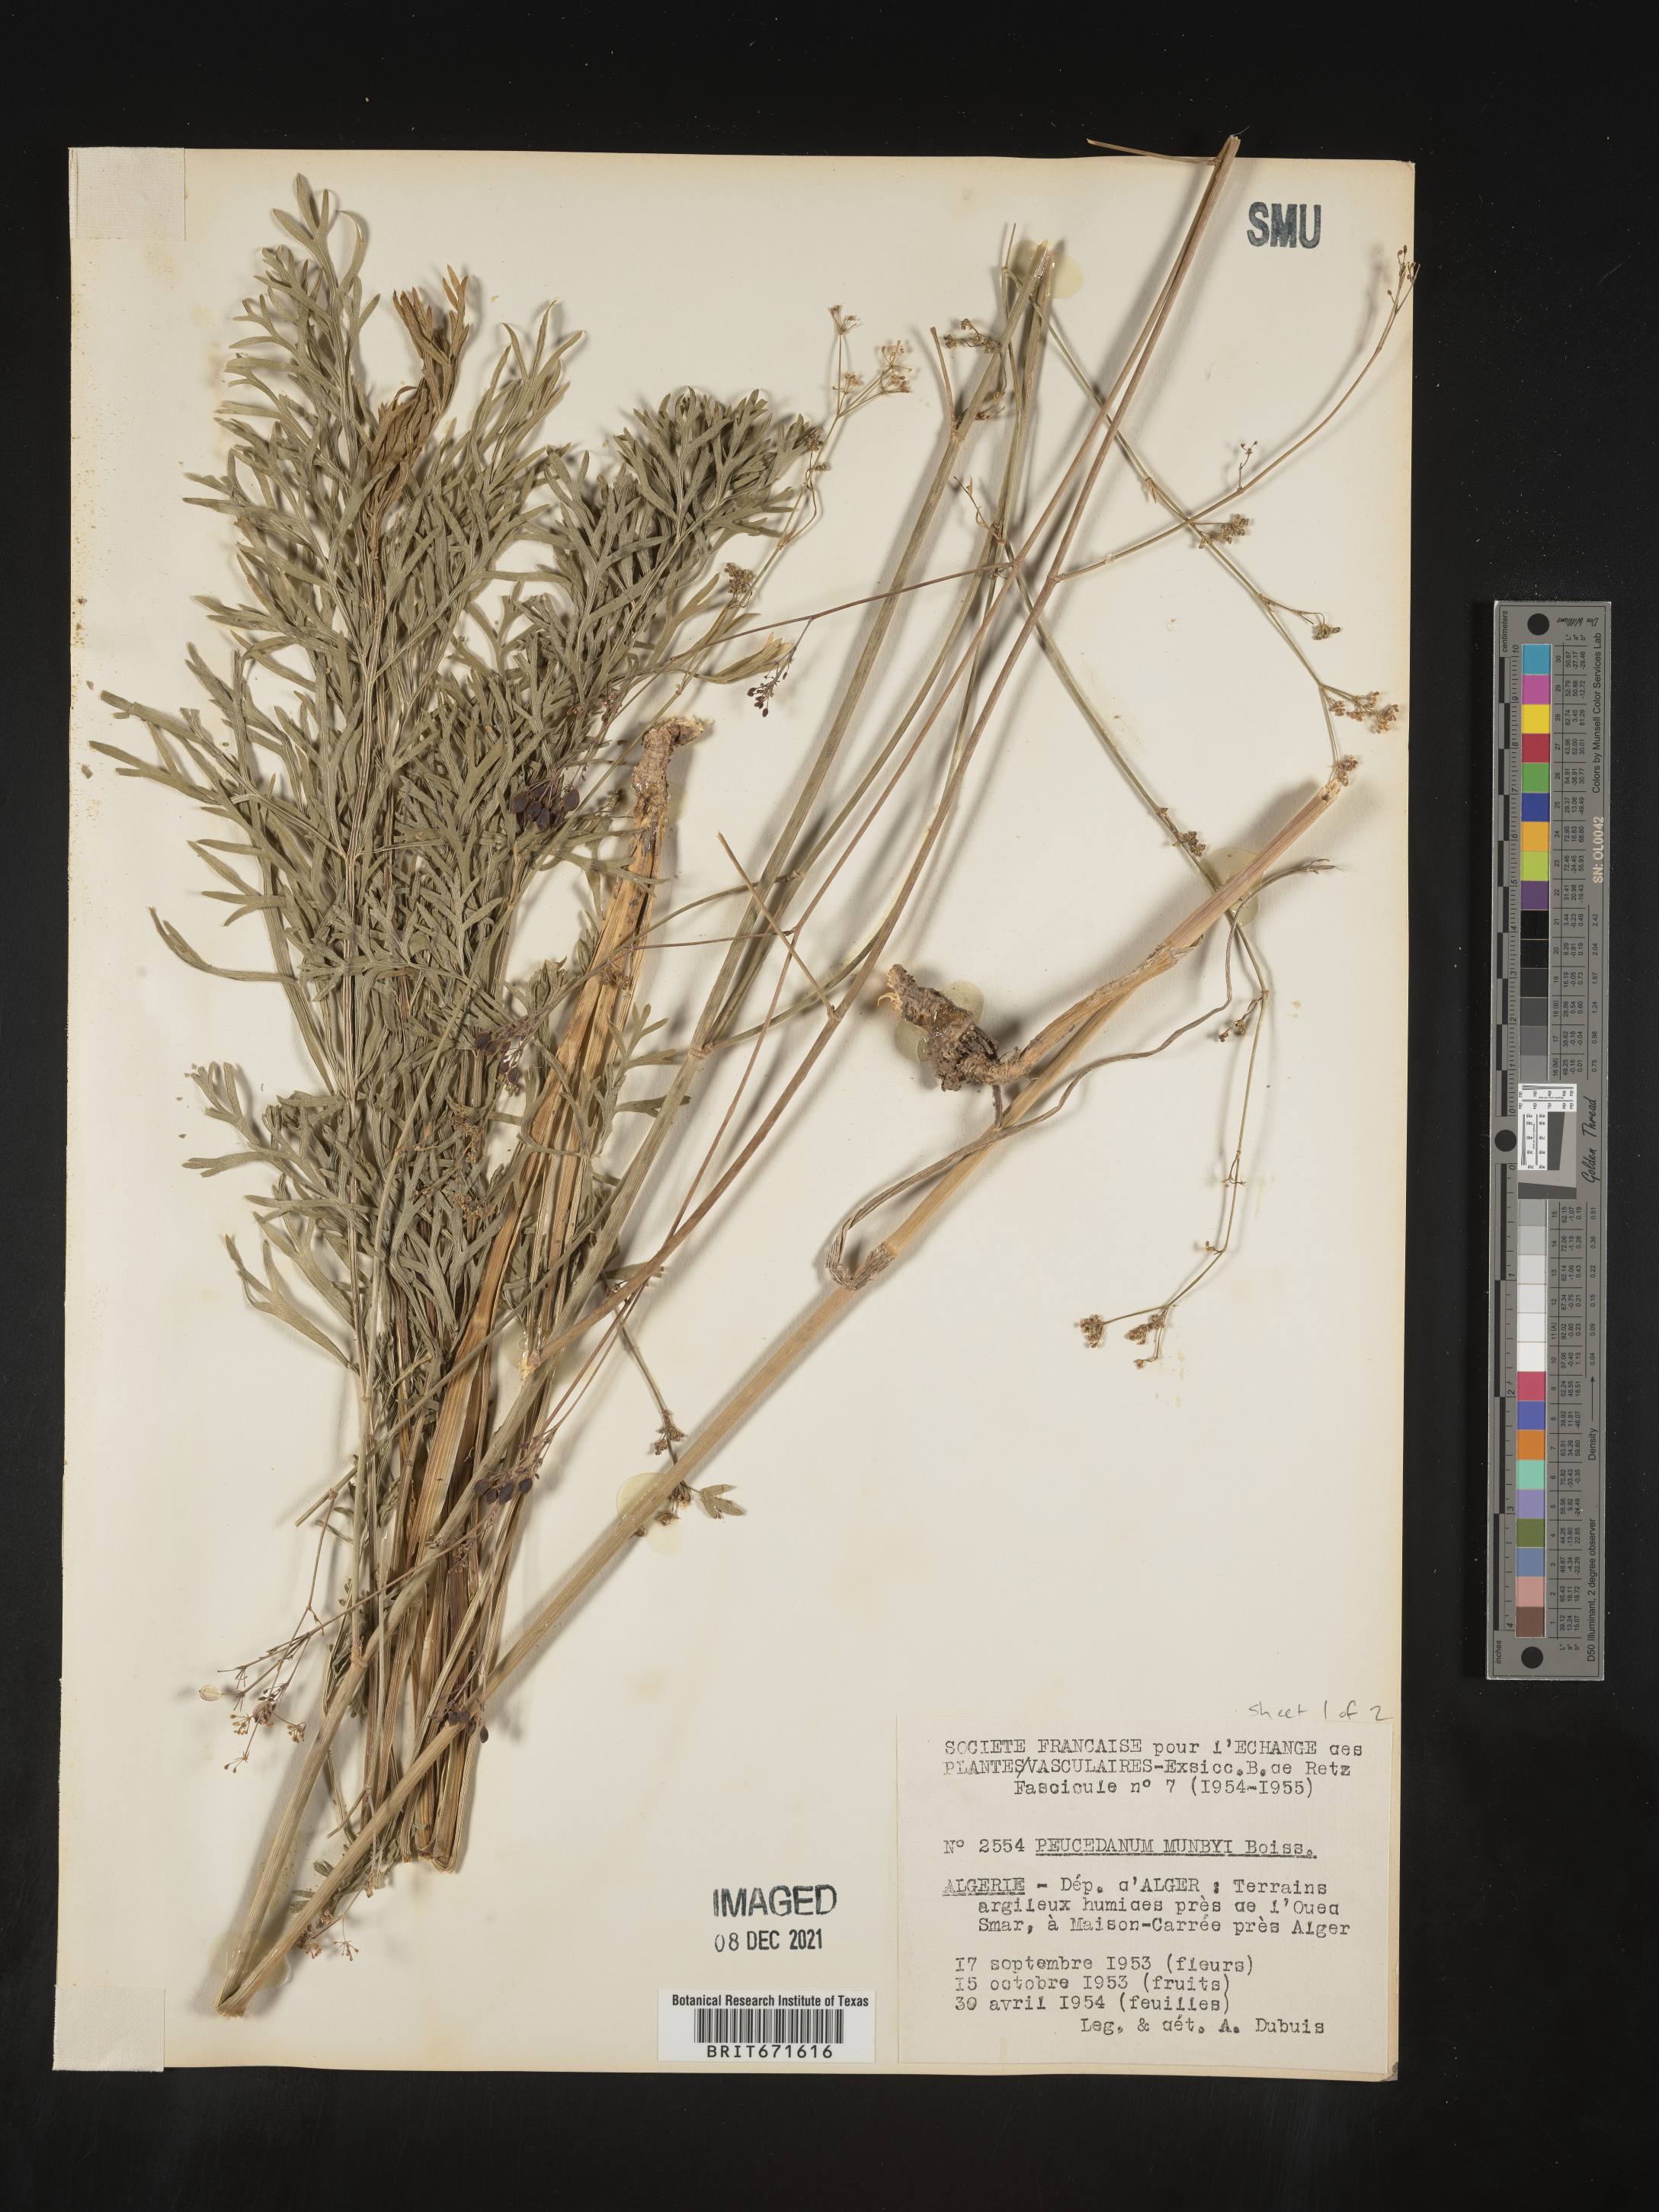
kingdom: Plantae
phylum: Tracheophyta
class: Magnoliopsida
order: Apiales
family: Apiaceae
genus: Peucedanum
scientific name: Peucedanum
